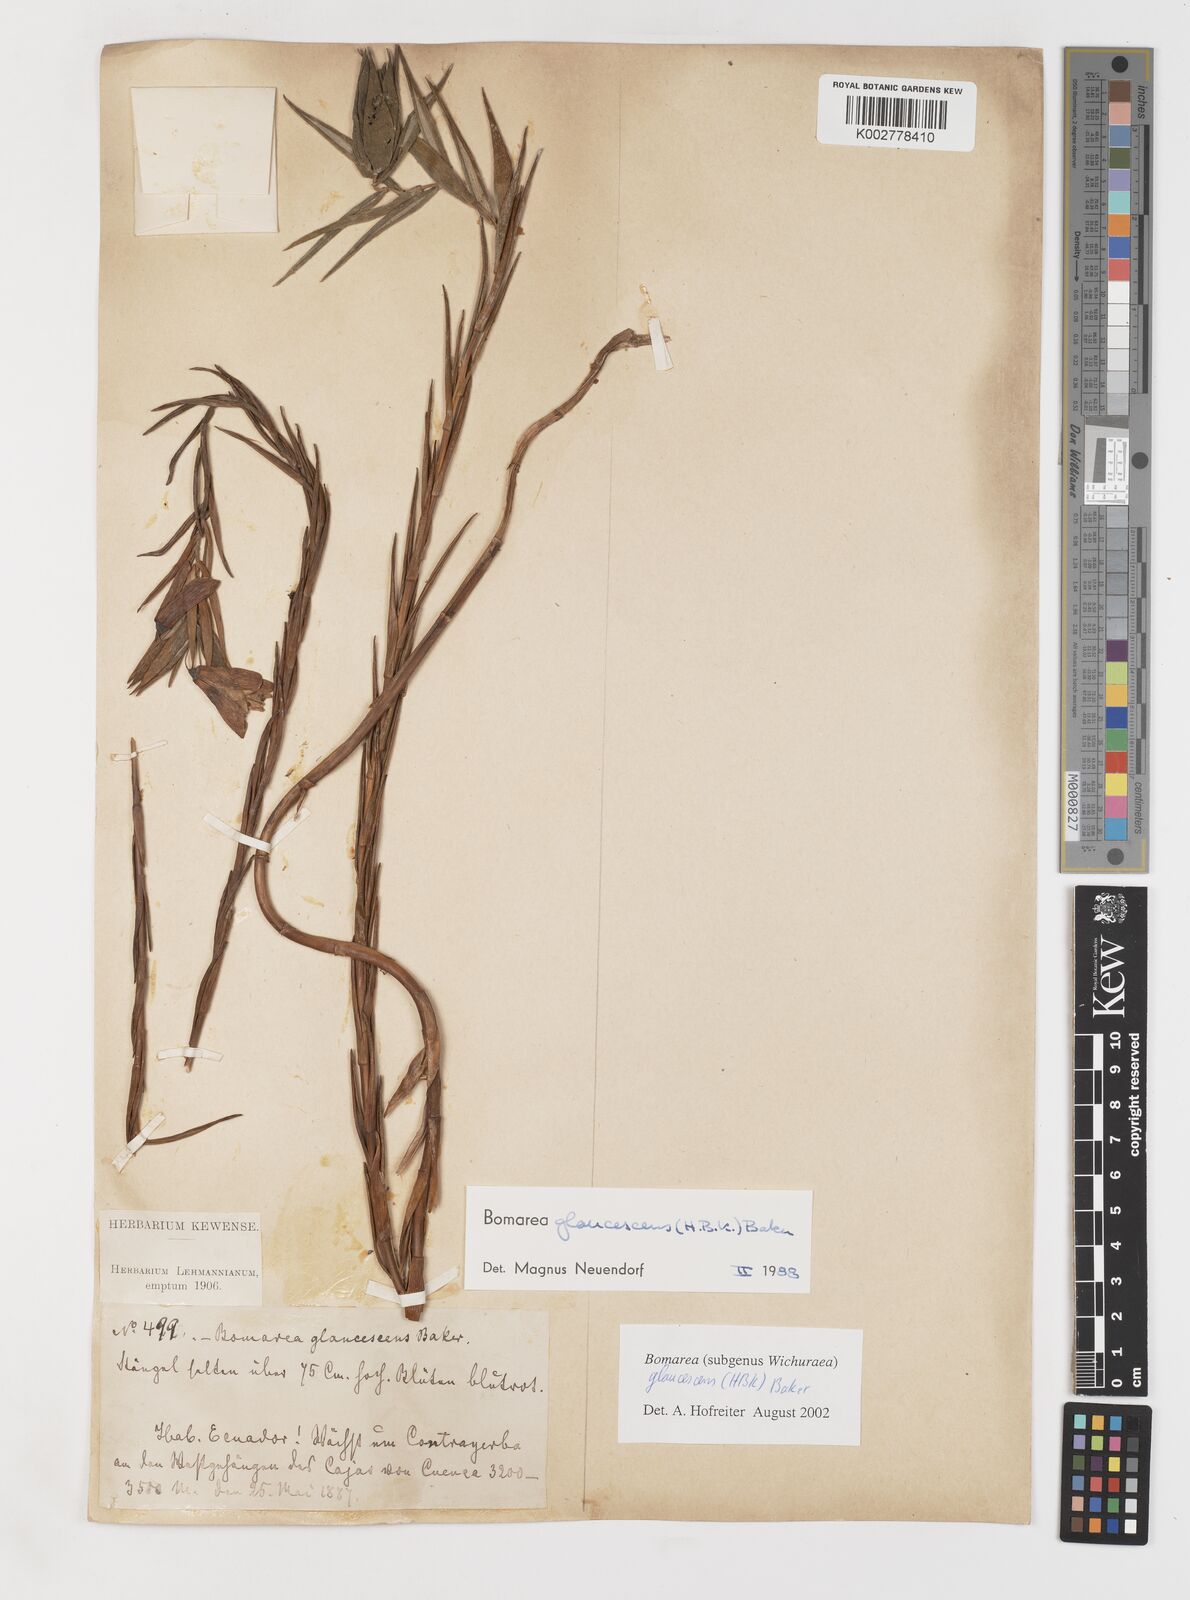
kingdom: Plantae
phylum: Tracheophyta
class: Liliopsida
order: Liliales
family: Alstroemeriaceae
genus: Bomarea
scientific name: Bomarea glaucescens
